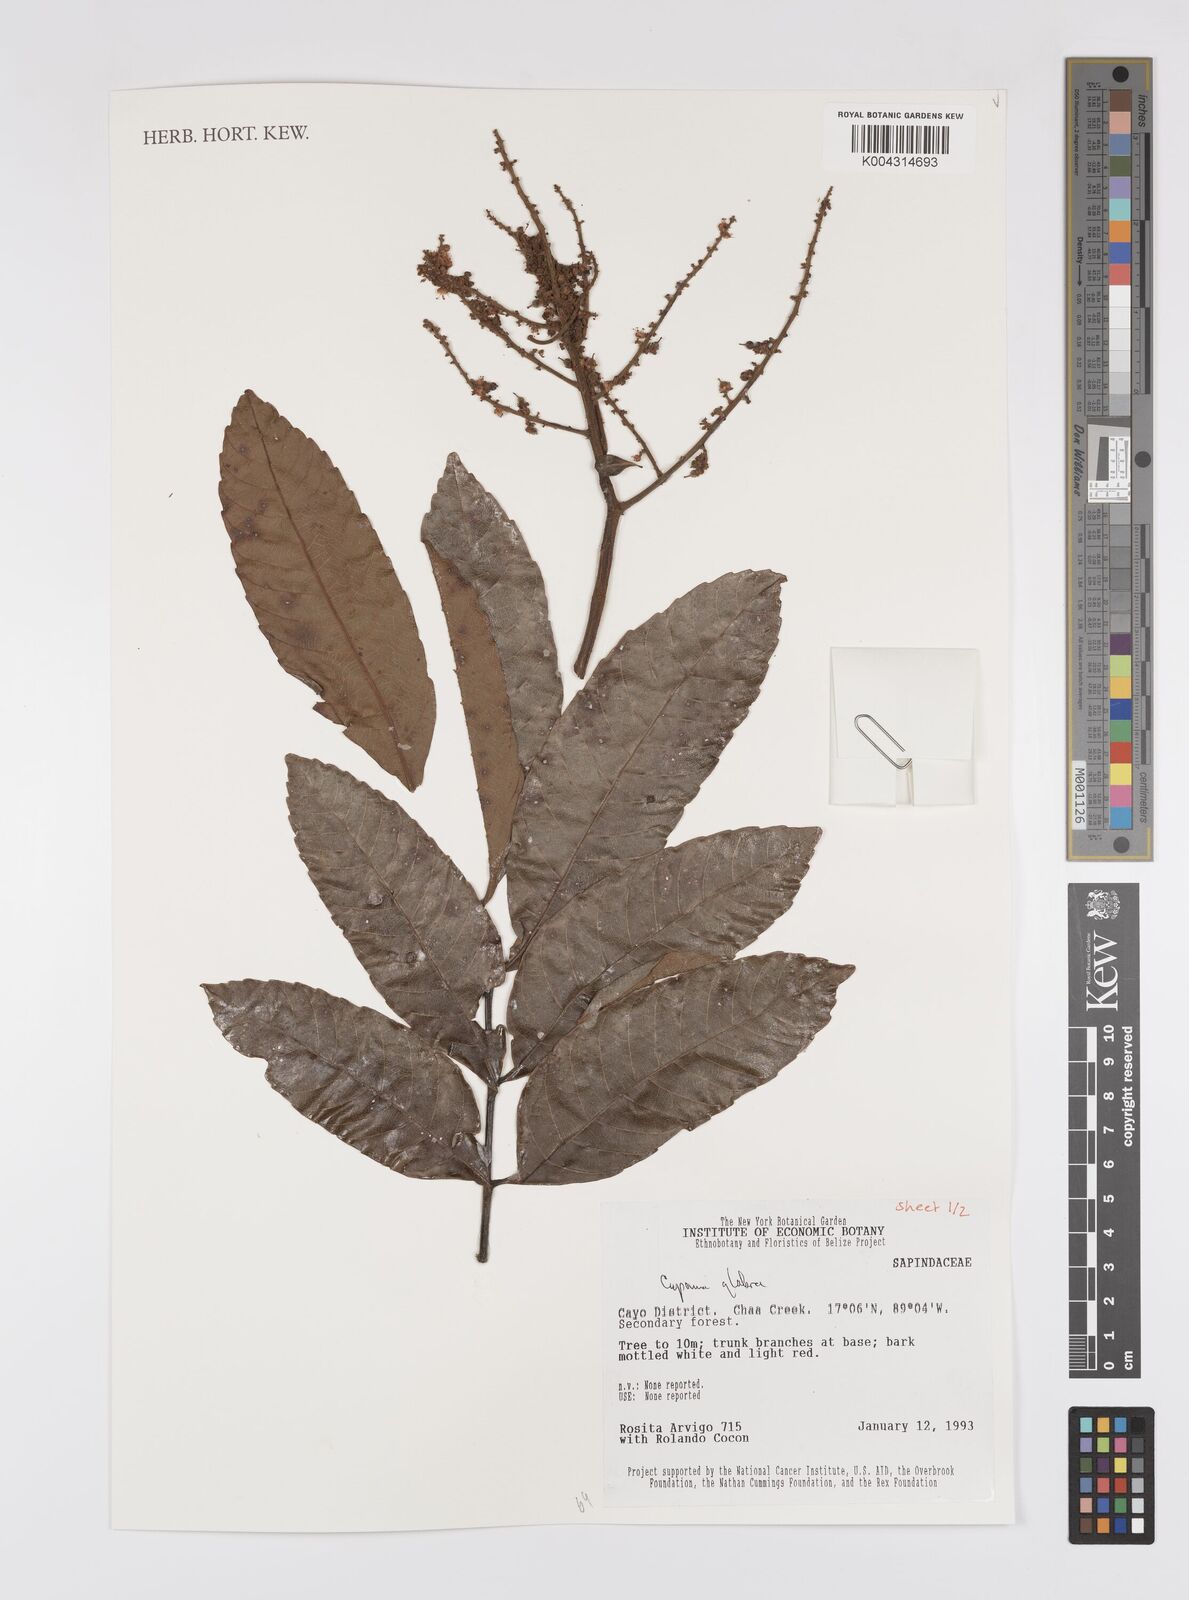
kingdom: Plantae
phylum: Tracheophyta
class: Magnoliopsida
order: Sapindales
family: Sapindaceae
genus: Cupania
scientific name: Cupania
